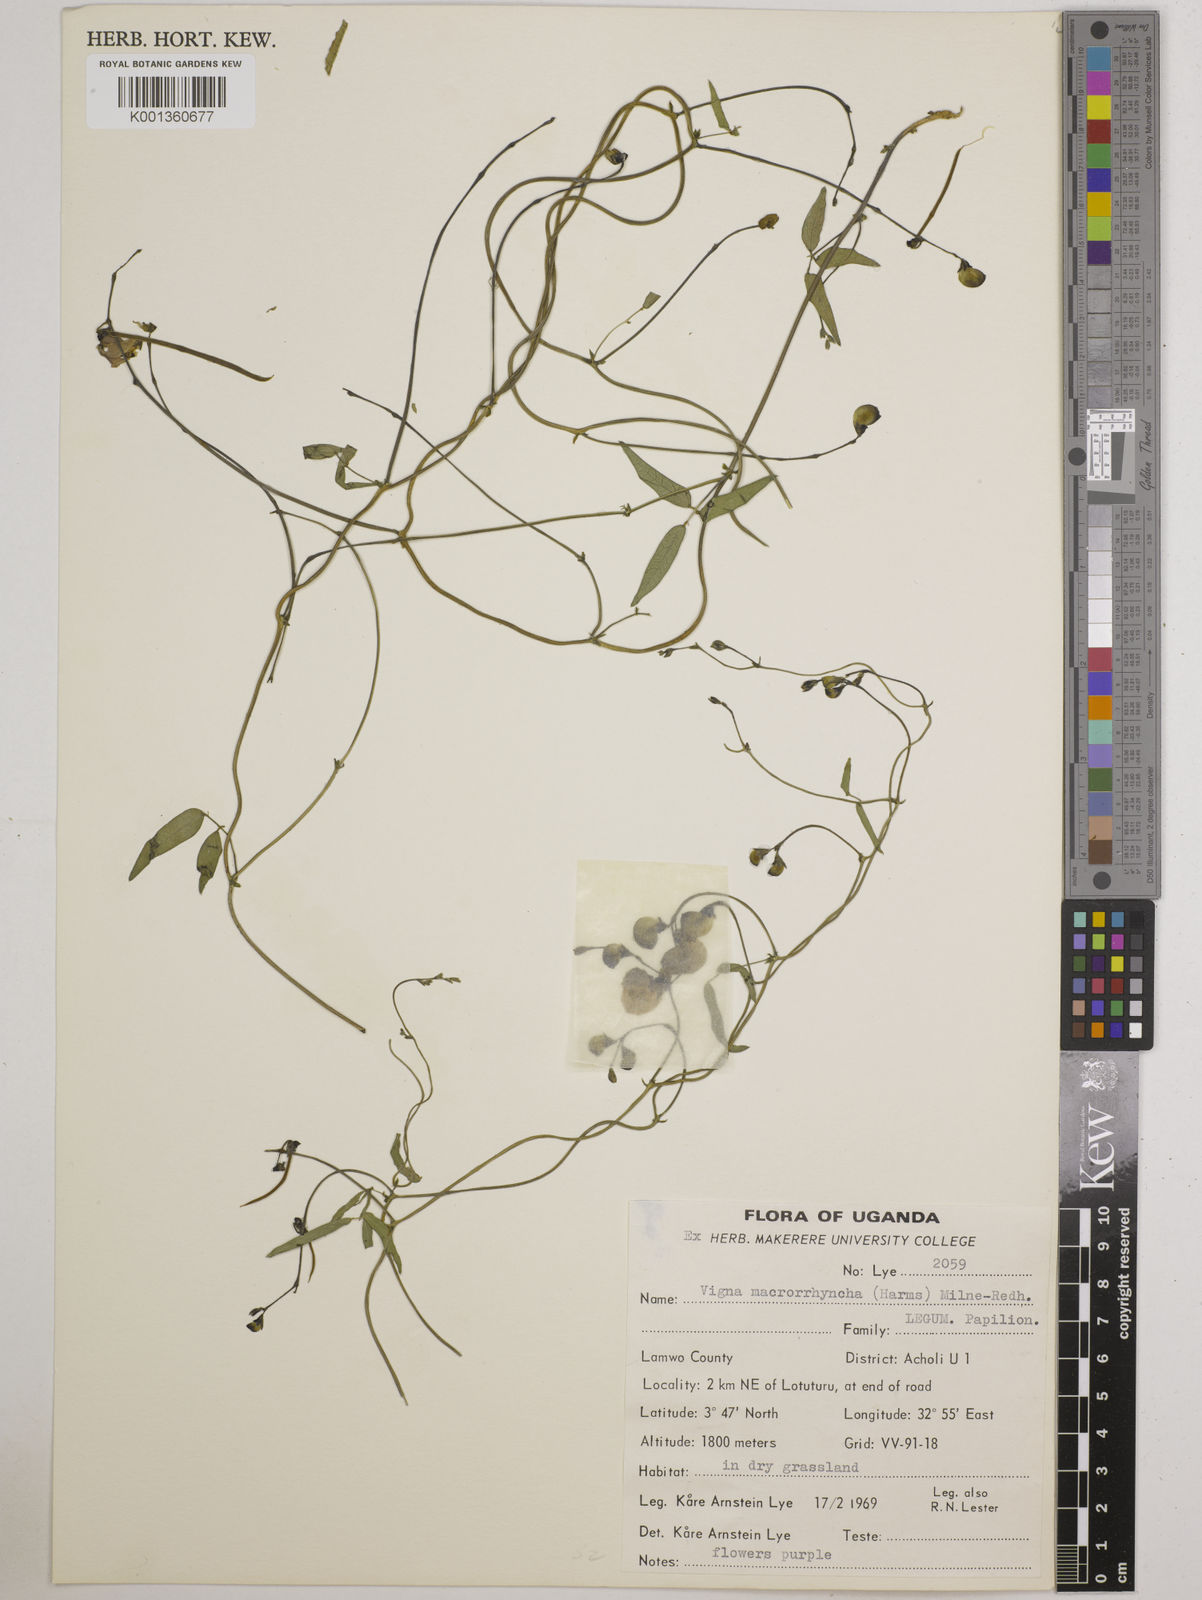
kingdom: Plantae
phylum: Tracheophyta
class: Magnoliopsida
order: Fabales
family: Fabaceae
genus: Wajira
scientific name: Wajira grahamiana
